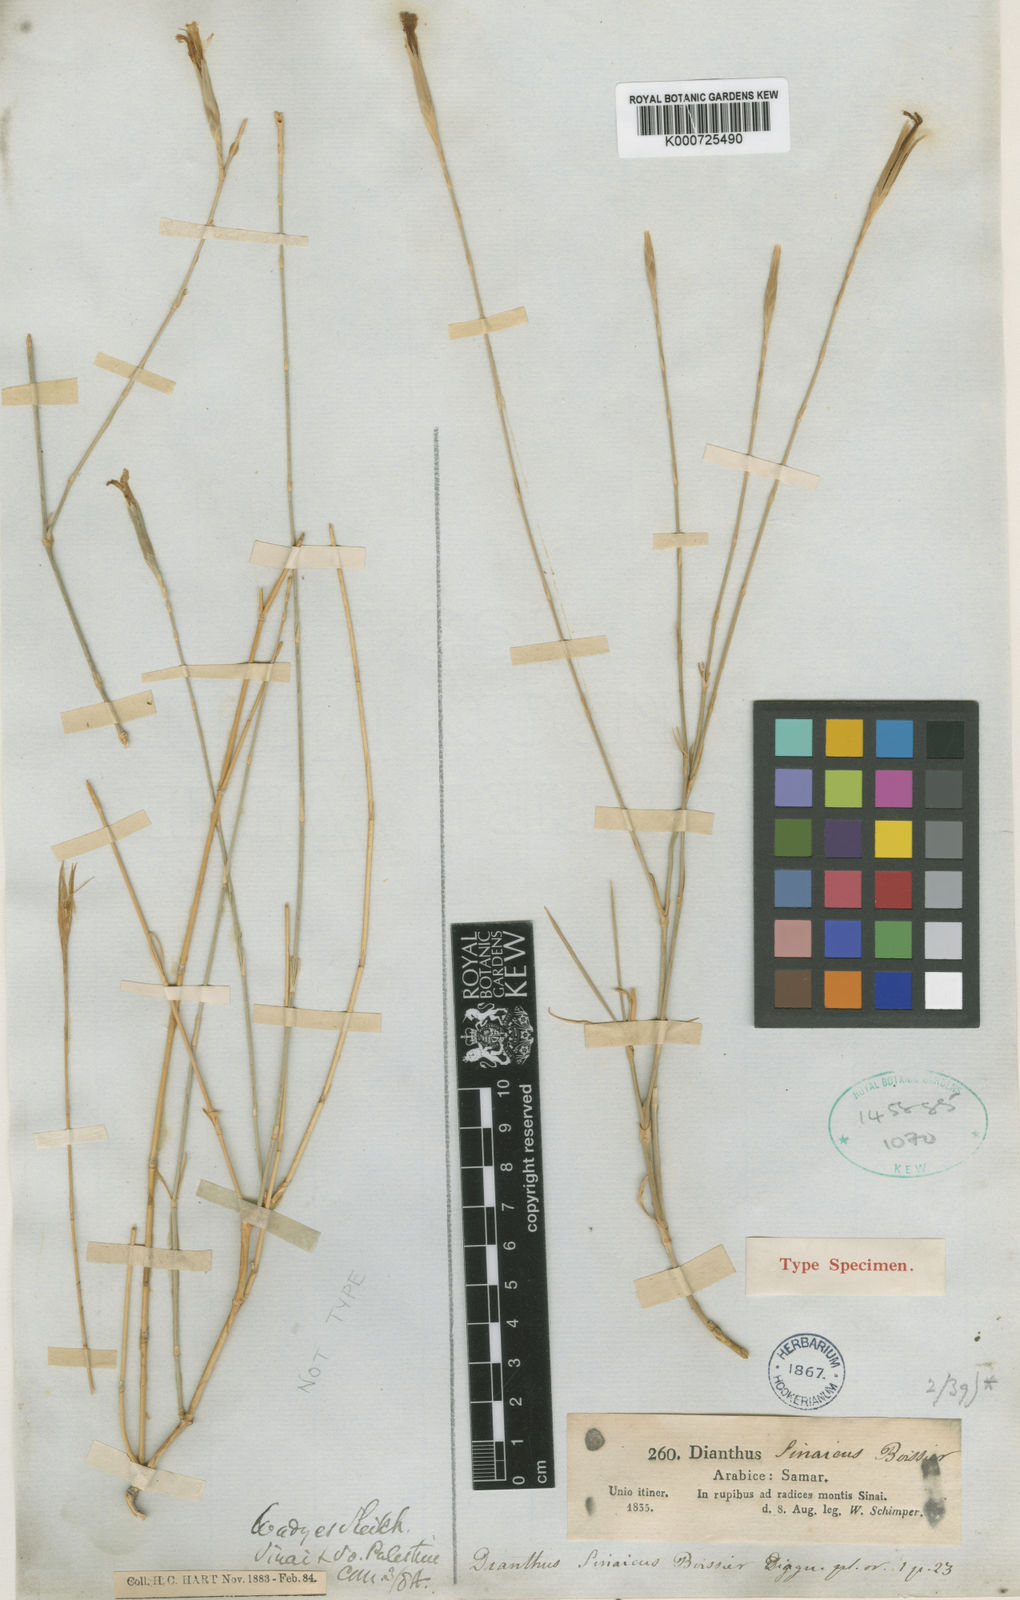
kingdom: Plantae
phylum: Tracheophyta
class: Magnoliopsida
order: Caryophyllales
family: Caryophyllaceae
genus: Dianthus
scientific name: Dianthus sinaicus
